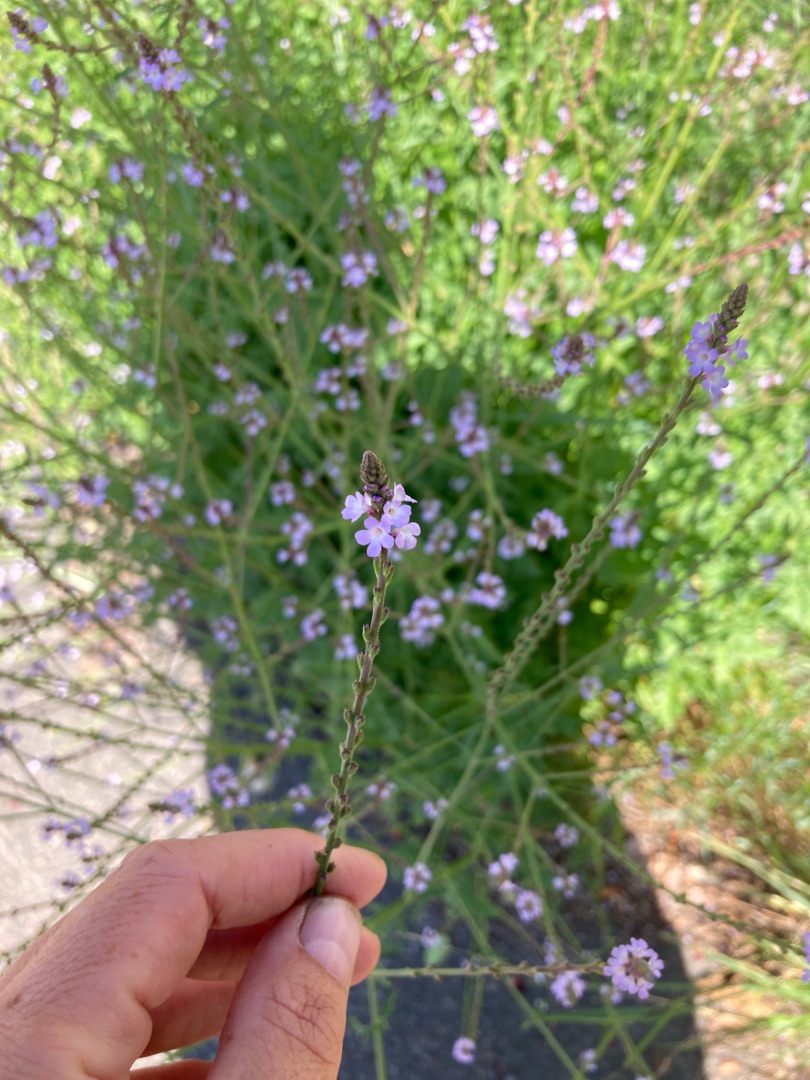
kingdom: Plantae
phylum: Tracheophyta
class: Magnoliopsida
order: Lamiales
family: Verbenaceae
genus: Verbena
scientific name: Verbena officinalis
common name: Læge-jernurt
